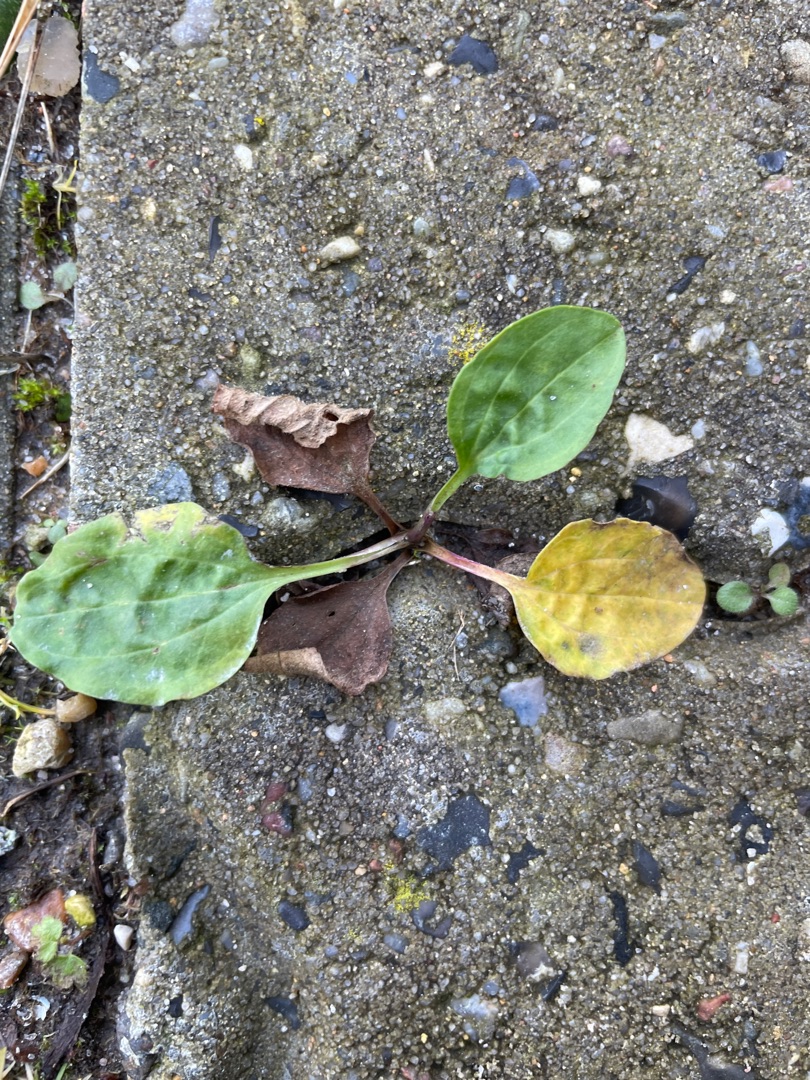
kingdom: Plantae
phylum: Tracheophyta
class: Magnoliopsida
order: Lamiales
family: Plantaginaceae
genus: Plantago
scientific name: Plantago major
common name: Glat vejbred
